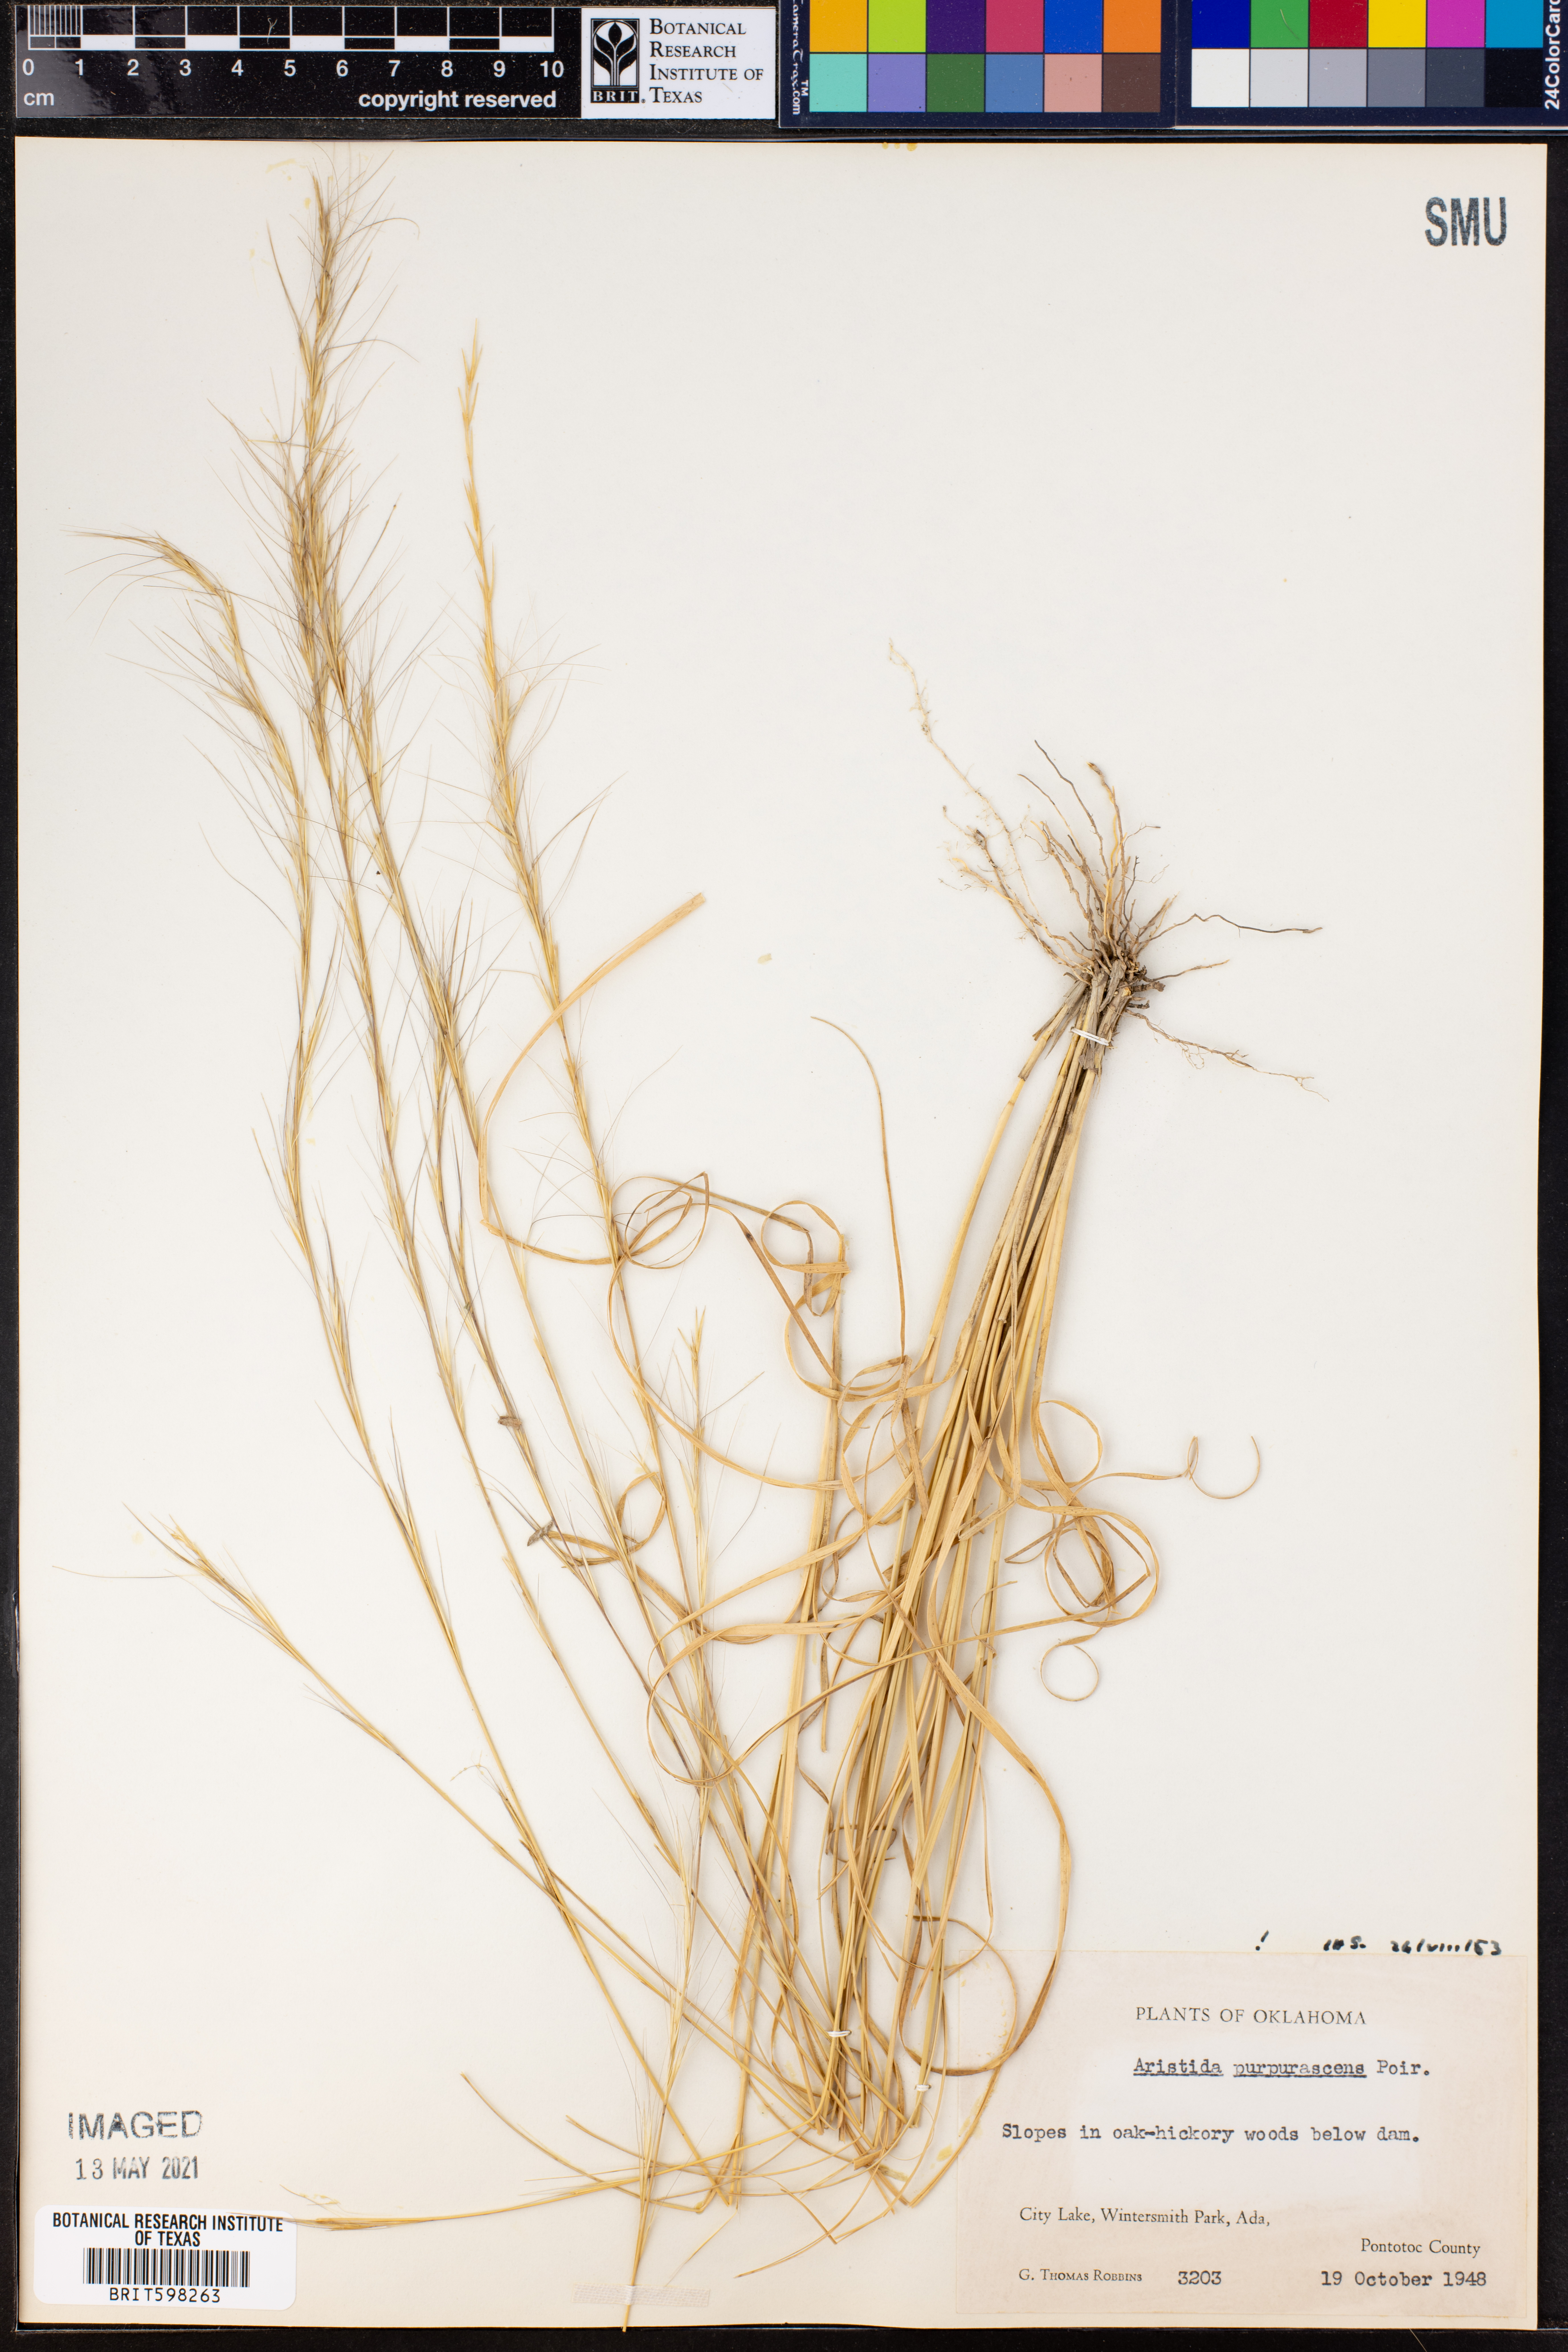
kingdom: Plantae
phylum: Tracheophyta
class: Liliopsida
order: Poales
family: Poaceae
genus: Aristida
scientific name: Aristida purpurascens
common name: Arrow-feather
